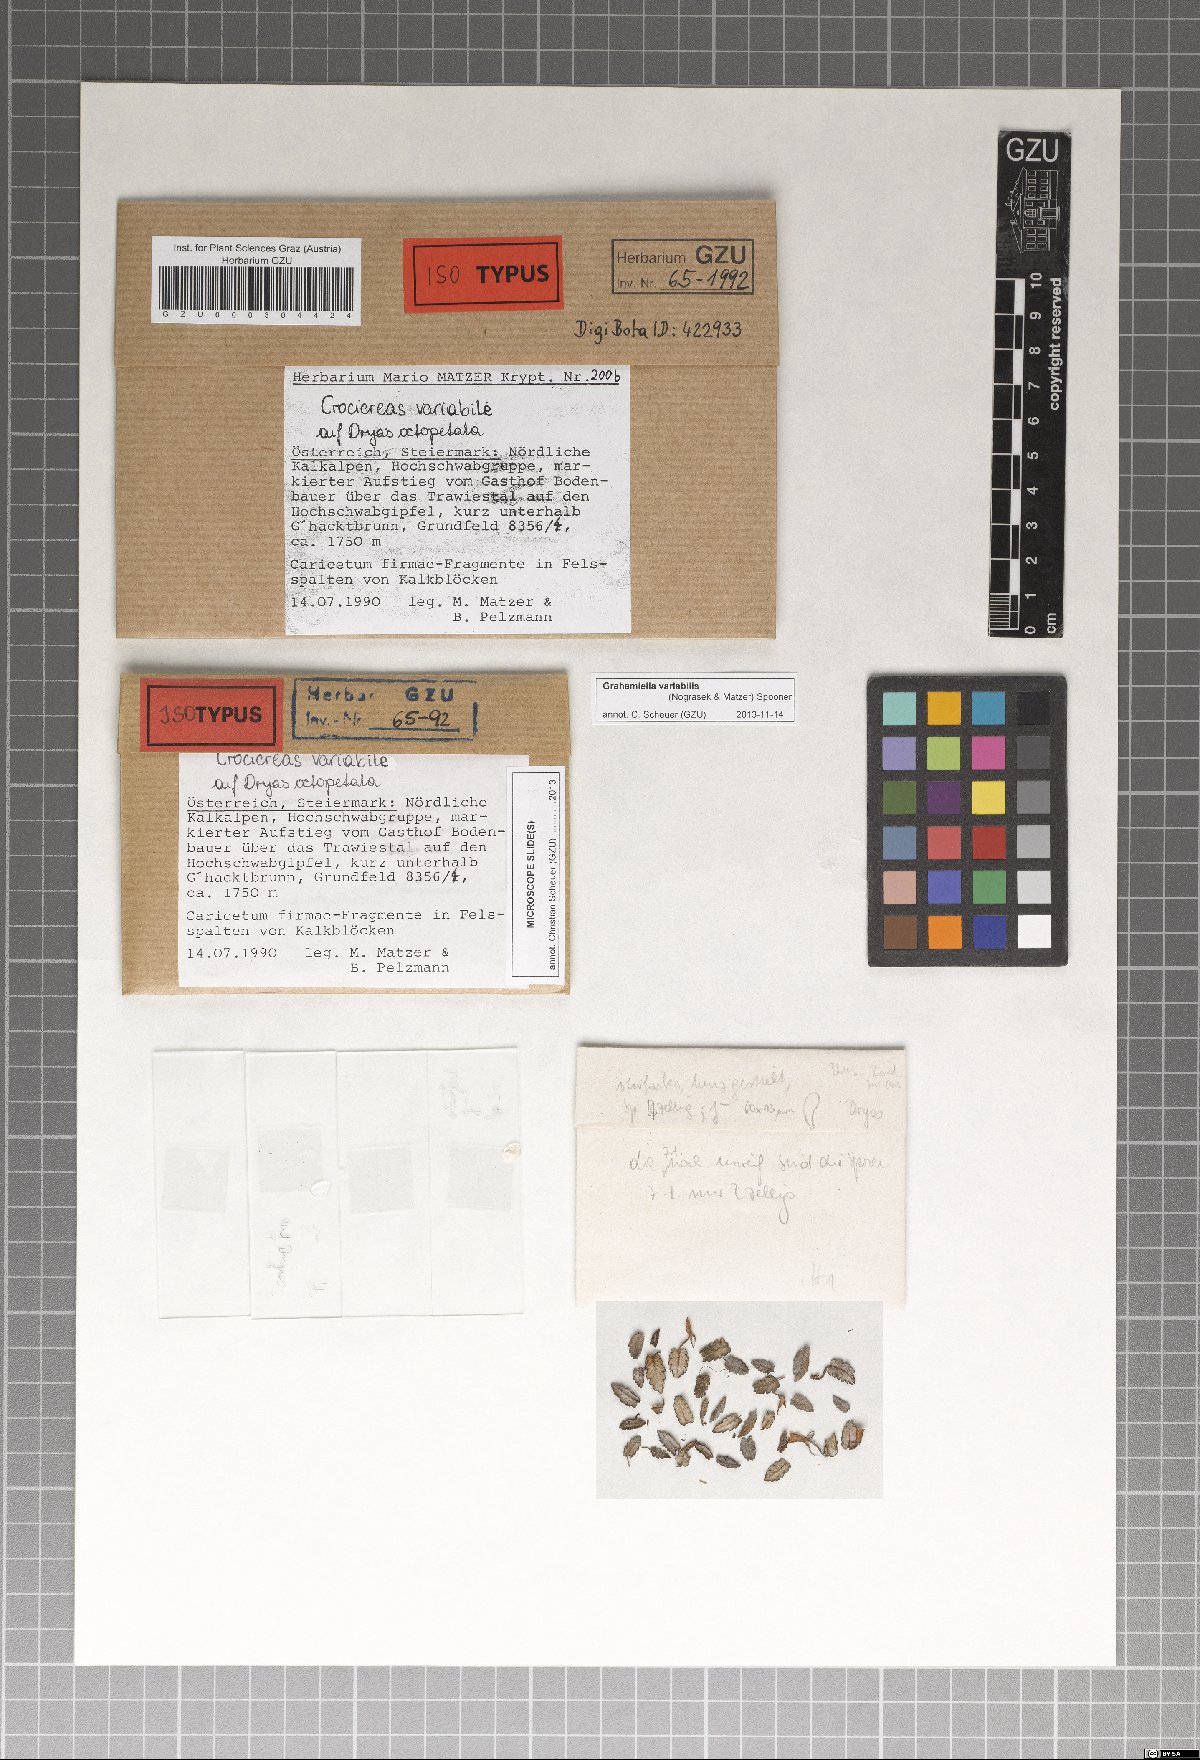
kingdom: Fungi
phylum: Ascomycota
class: Leotiomycetes
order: Helotiales
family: Hyaloscyphaceae
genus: Grahamiella
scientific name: Grahamiella variabile
